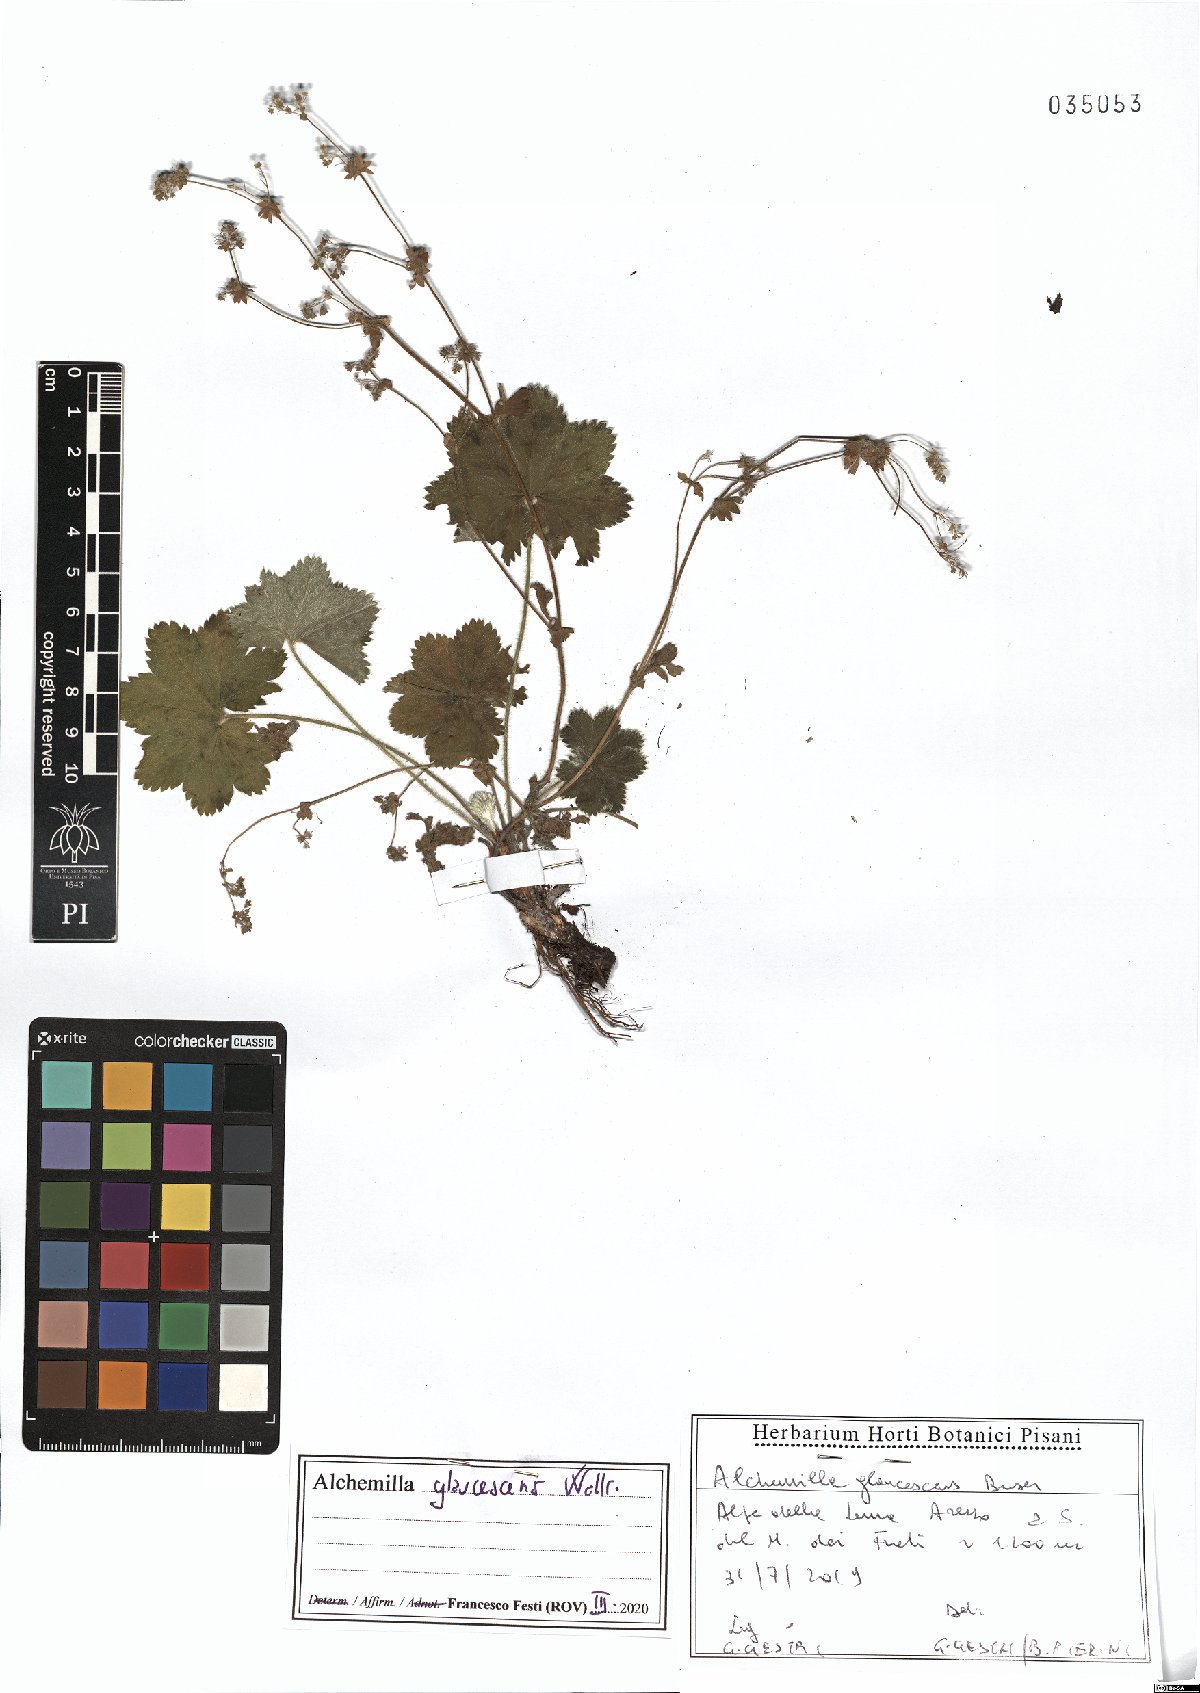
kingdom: Plantae
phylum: Tracheophyta
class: Magnoliopsida
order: Rosales
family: Rosaceae
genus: Alchemilla
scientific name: Alchemilla glaucescens
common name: Silky lady's mantle
